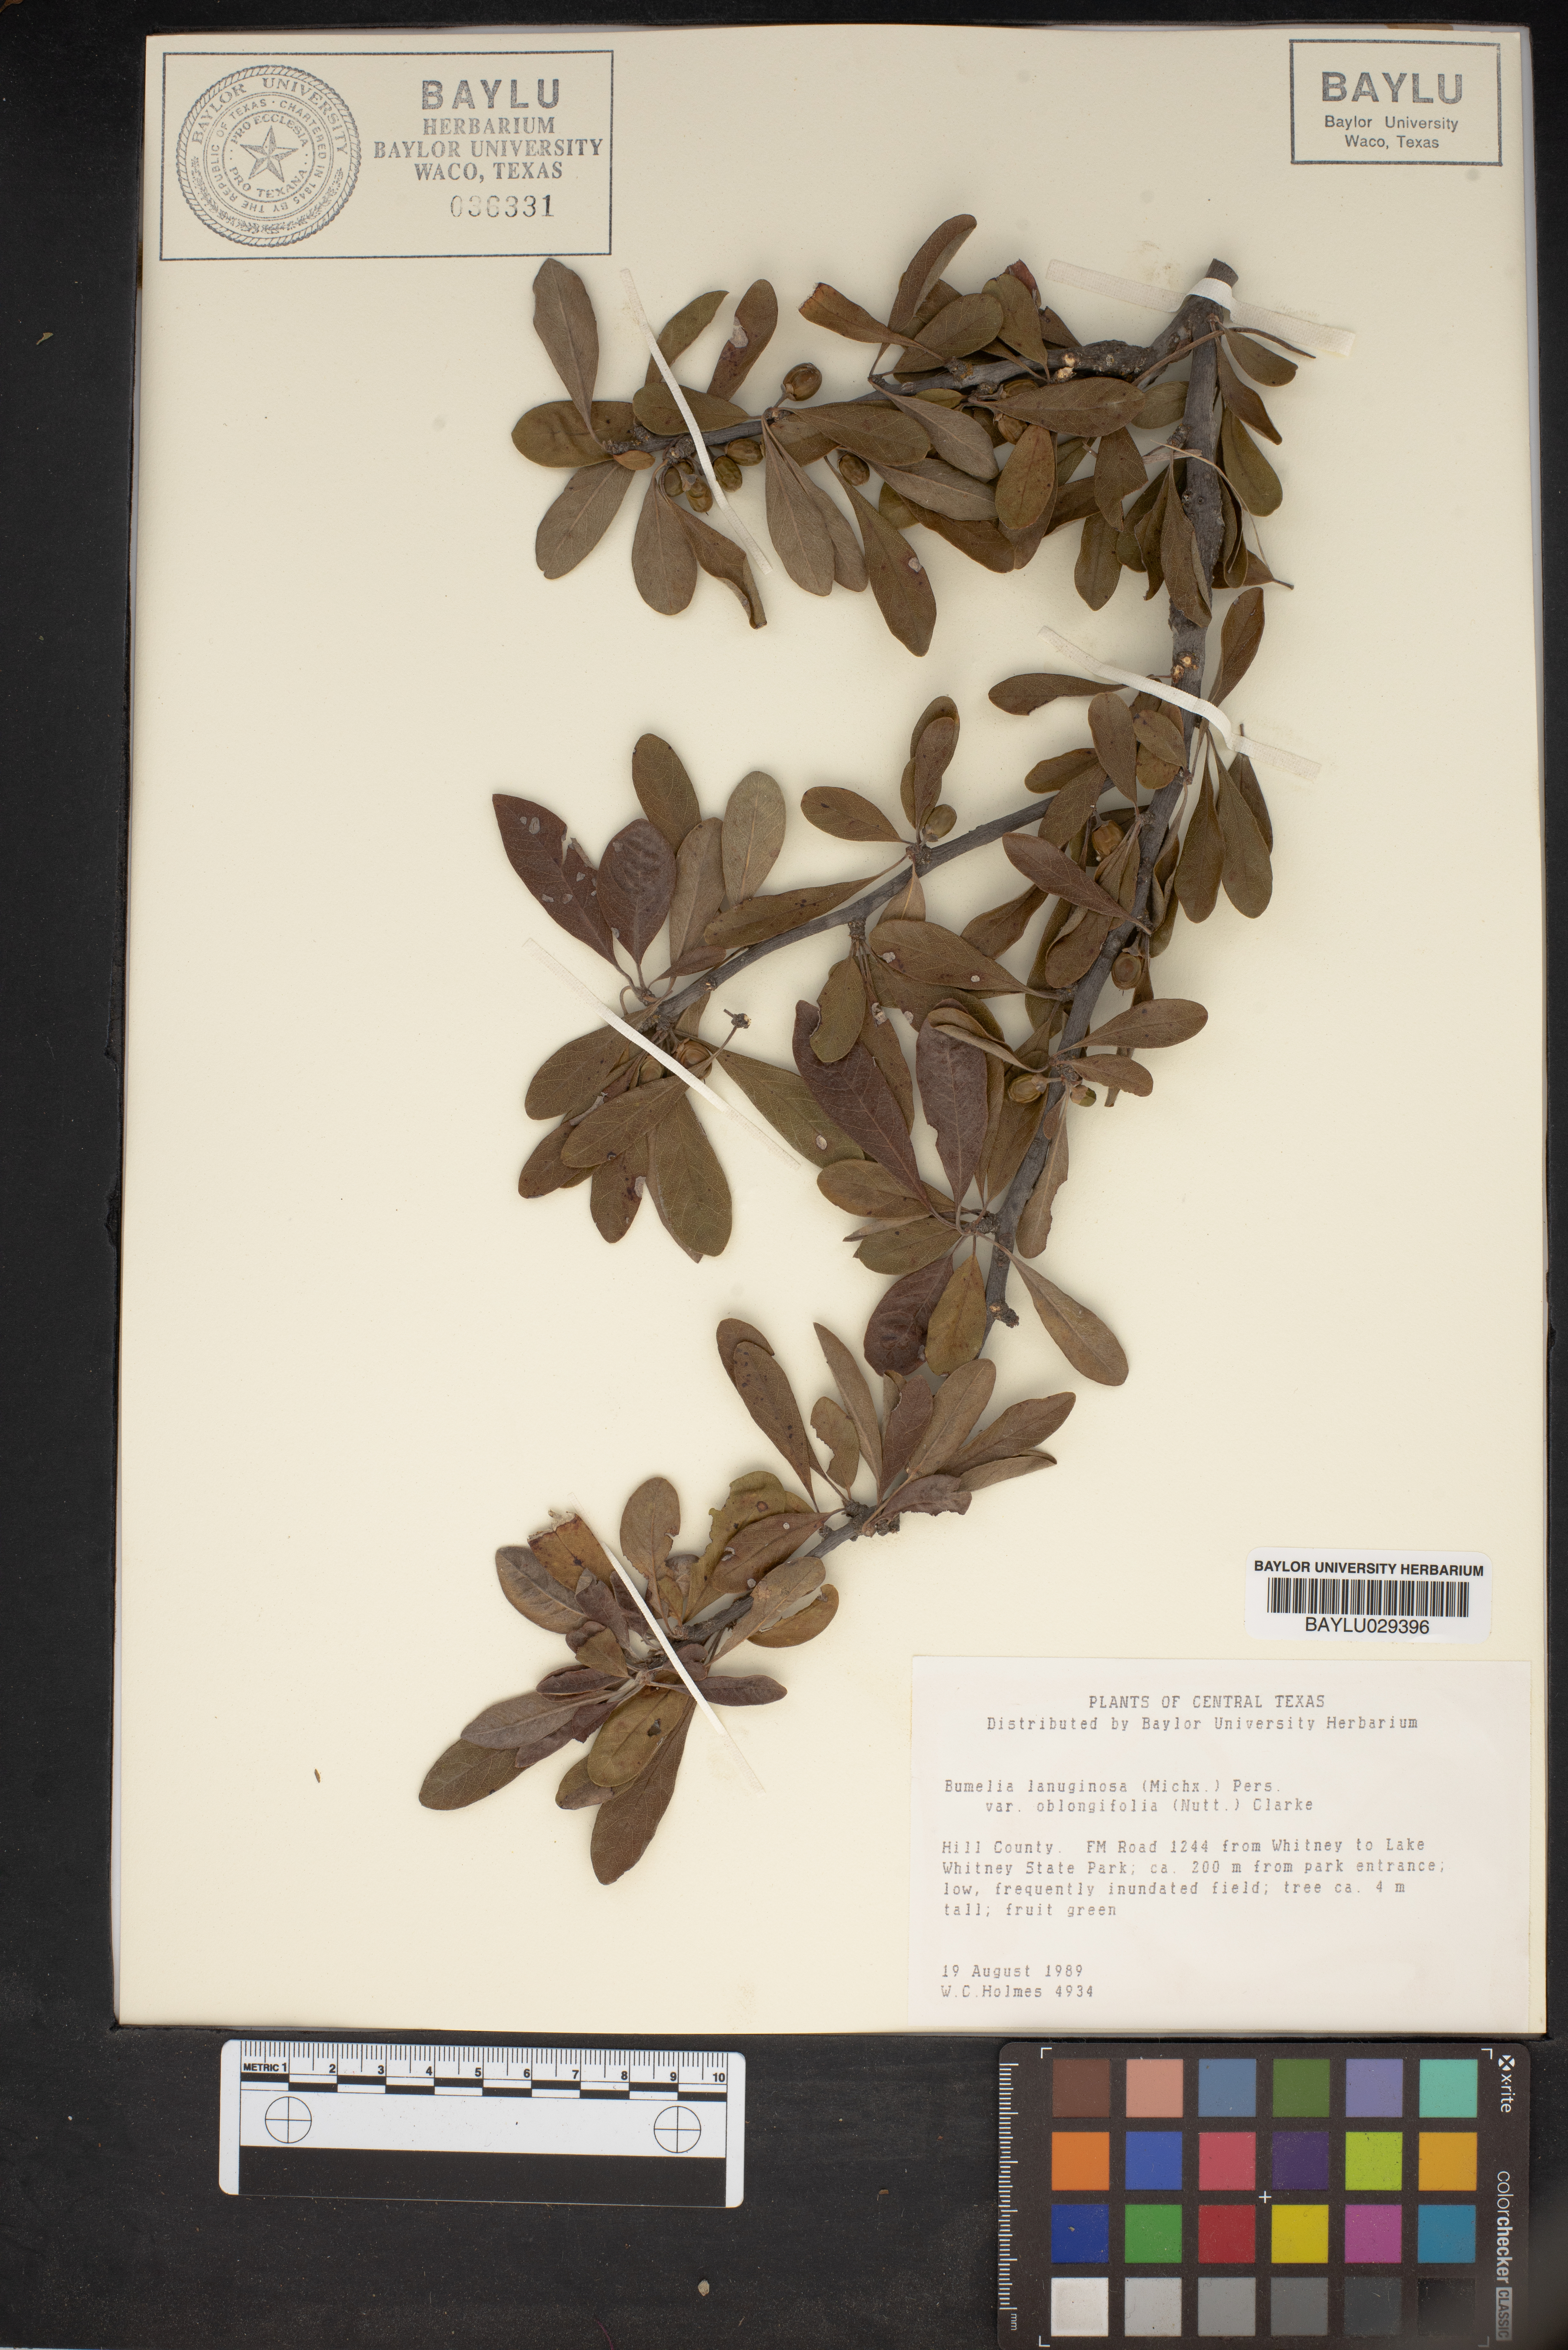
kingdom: Plantae
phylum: Tracheophyta
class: Magnoliopsida
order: Ericales
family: Sapotaceae
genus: Sideroxylon
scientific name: Sideroxylon lanuginosum
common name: Chittamwood
